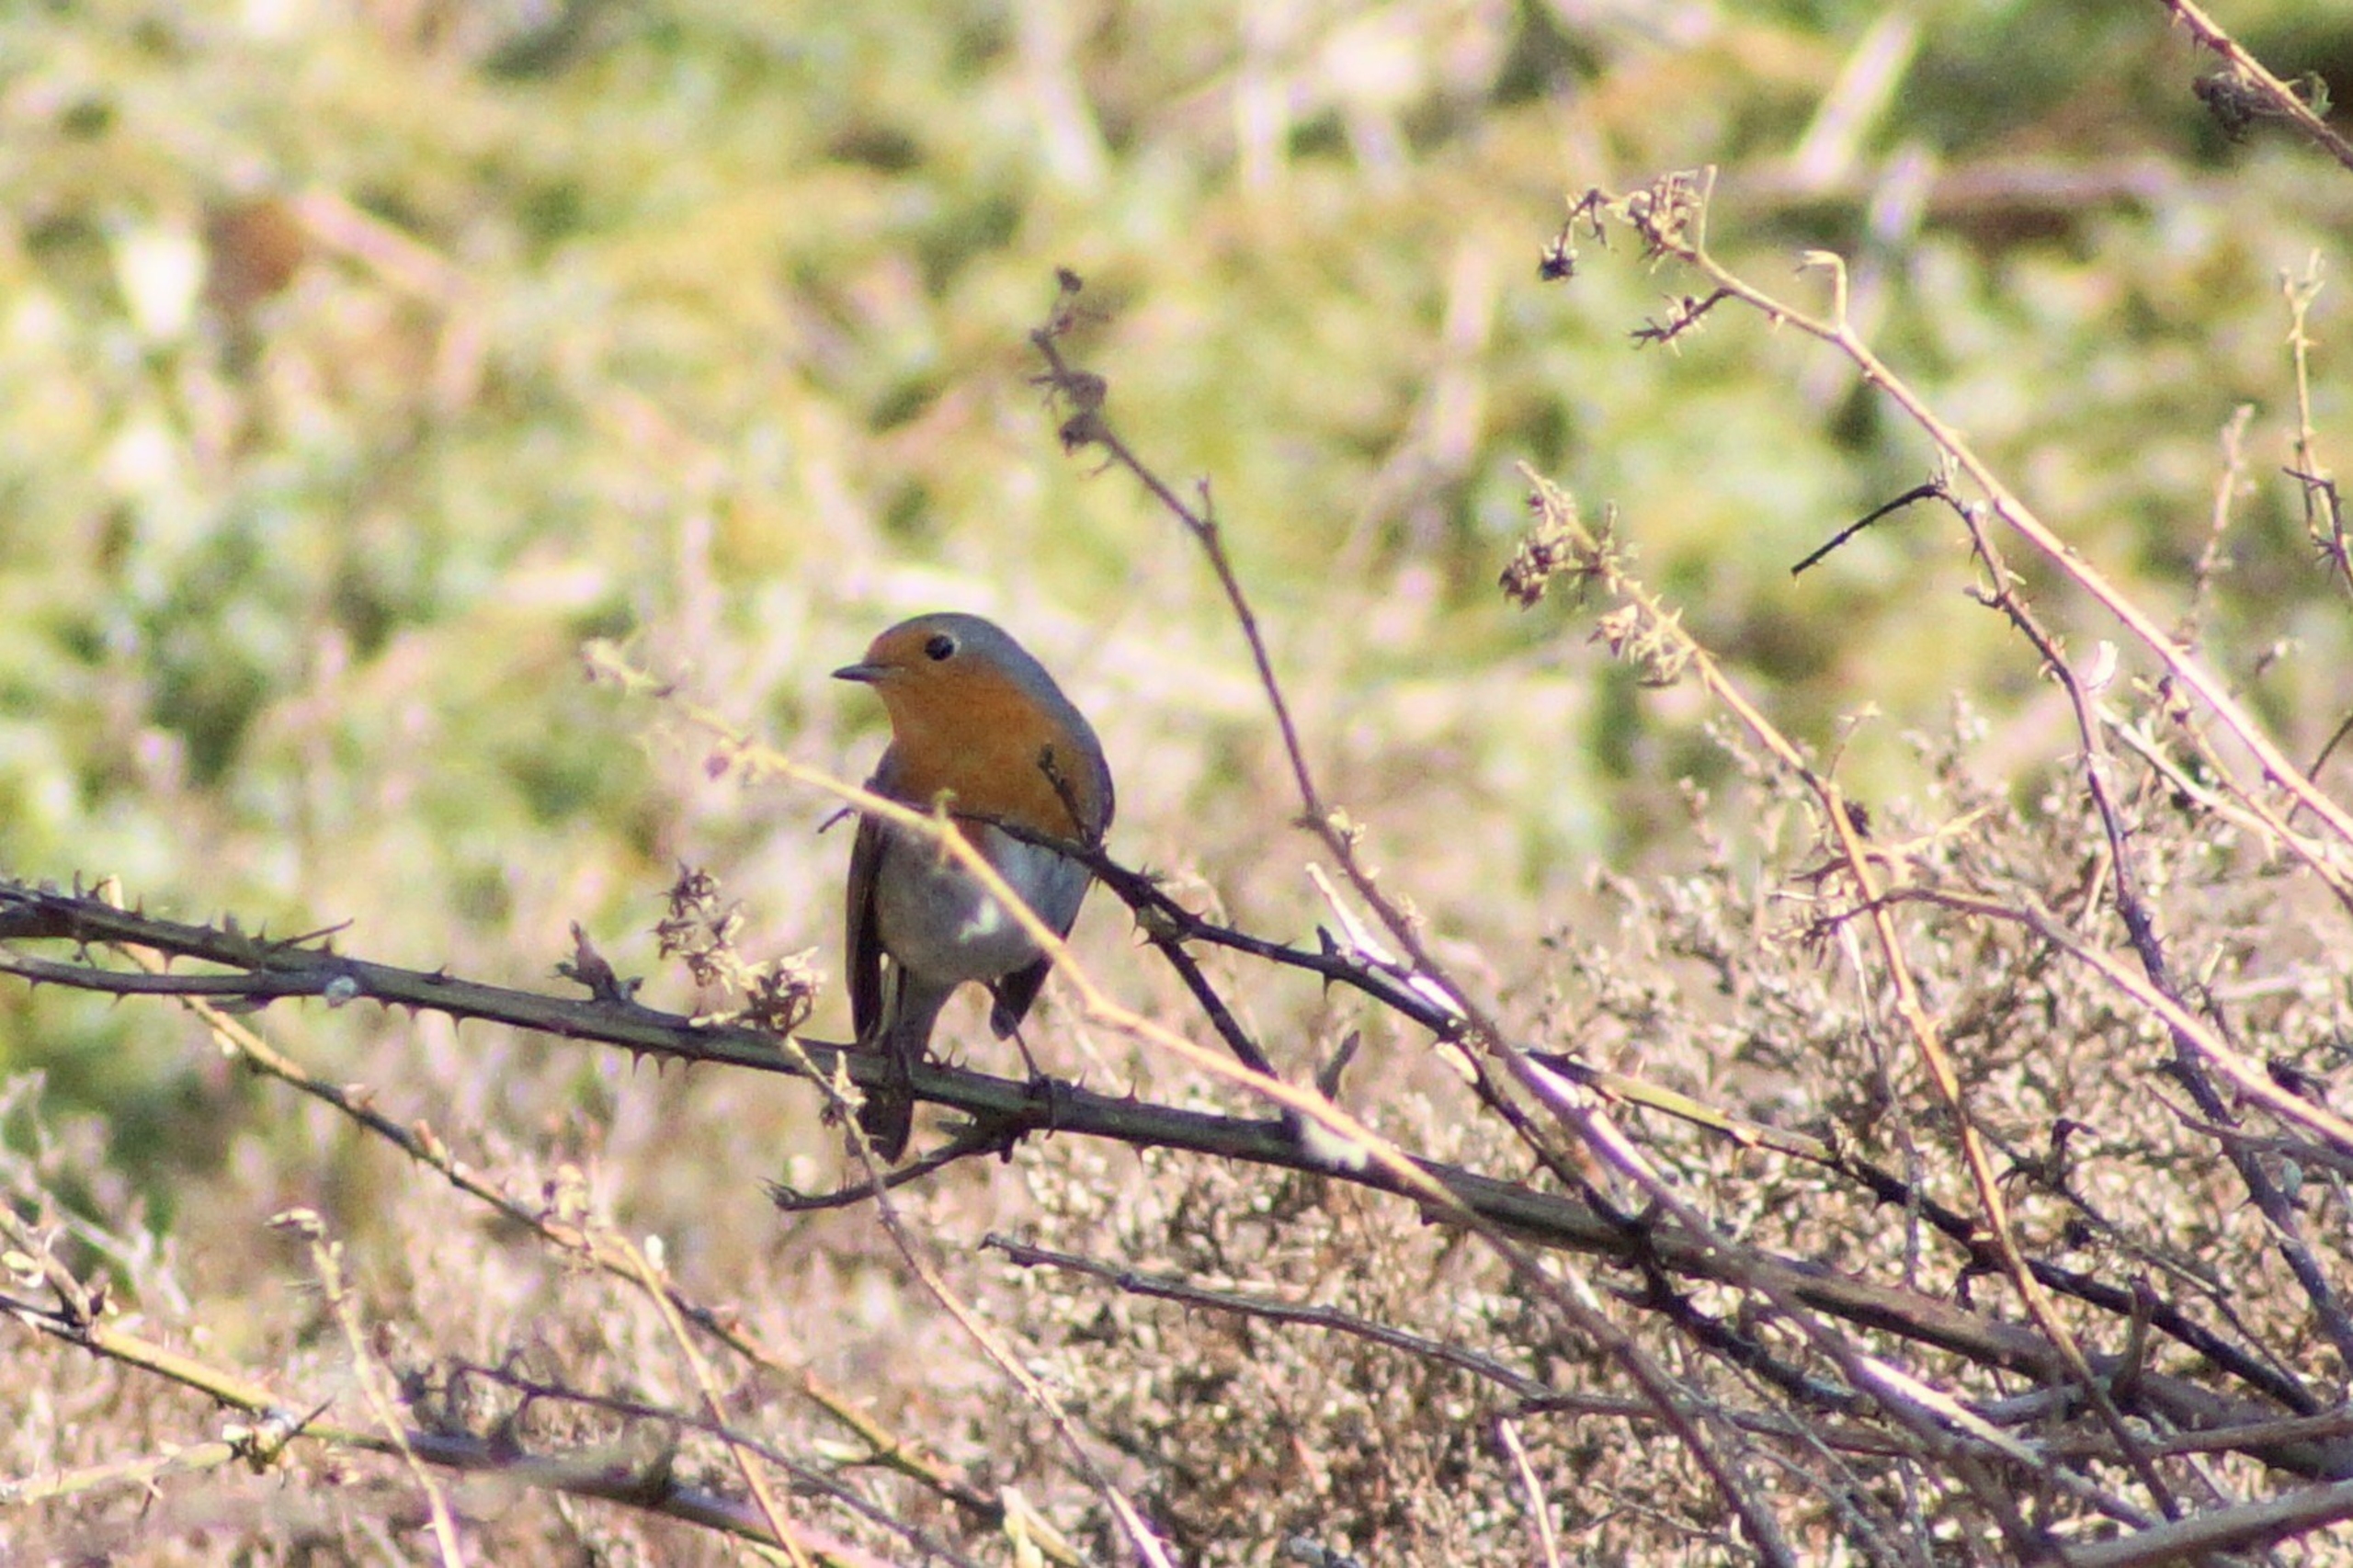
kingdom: Animalia
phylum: Chordata
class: Aves
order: Passeriformes
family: Muscicapidae
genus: Erithacus
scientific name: Erithacus rubecula
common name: Rødhals/rødkælk
